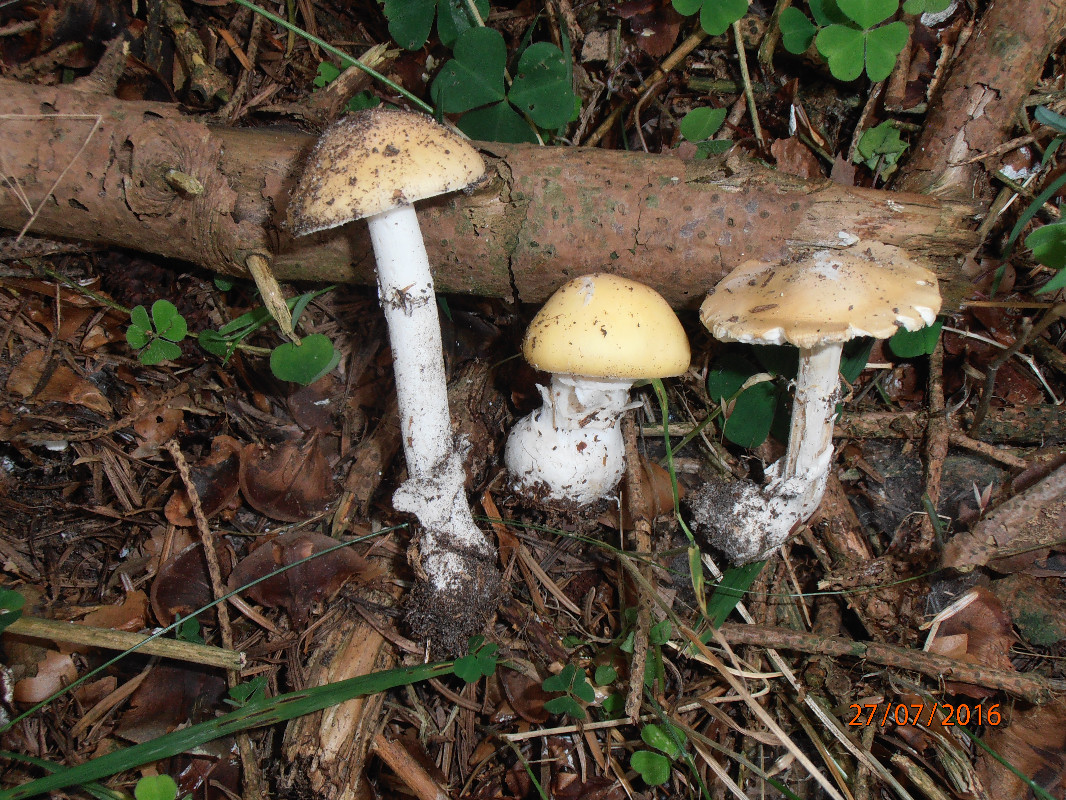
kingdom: Fungi
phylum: Basidiomycota
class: Agaricomycetes
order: Agaricales
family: Amanitaceae
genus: Amanita
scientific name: Amanita gemmata
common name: okkergul fluesvamp
